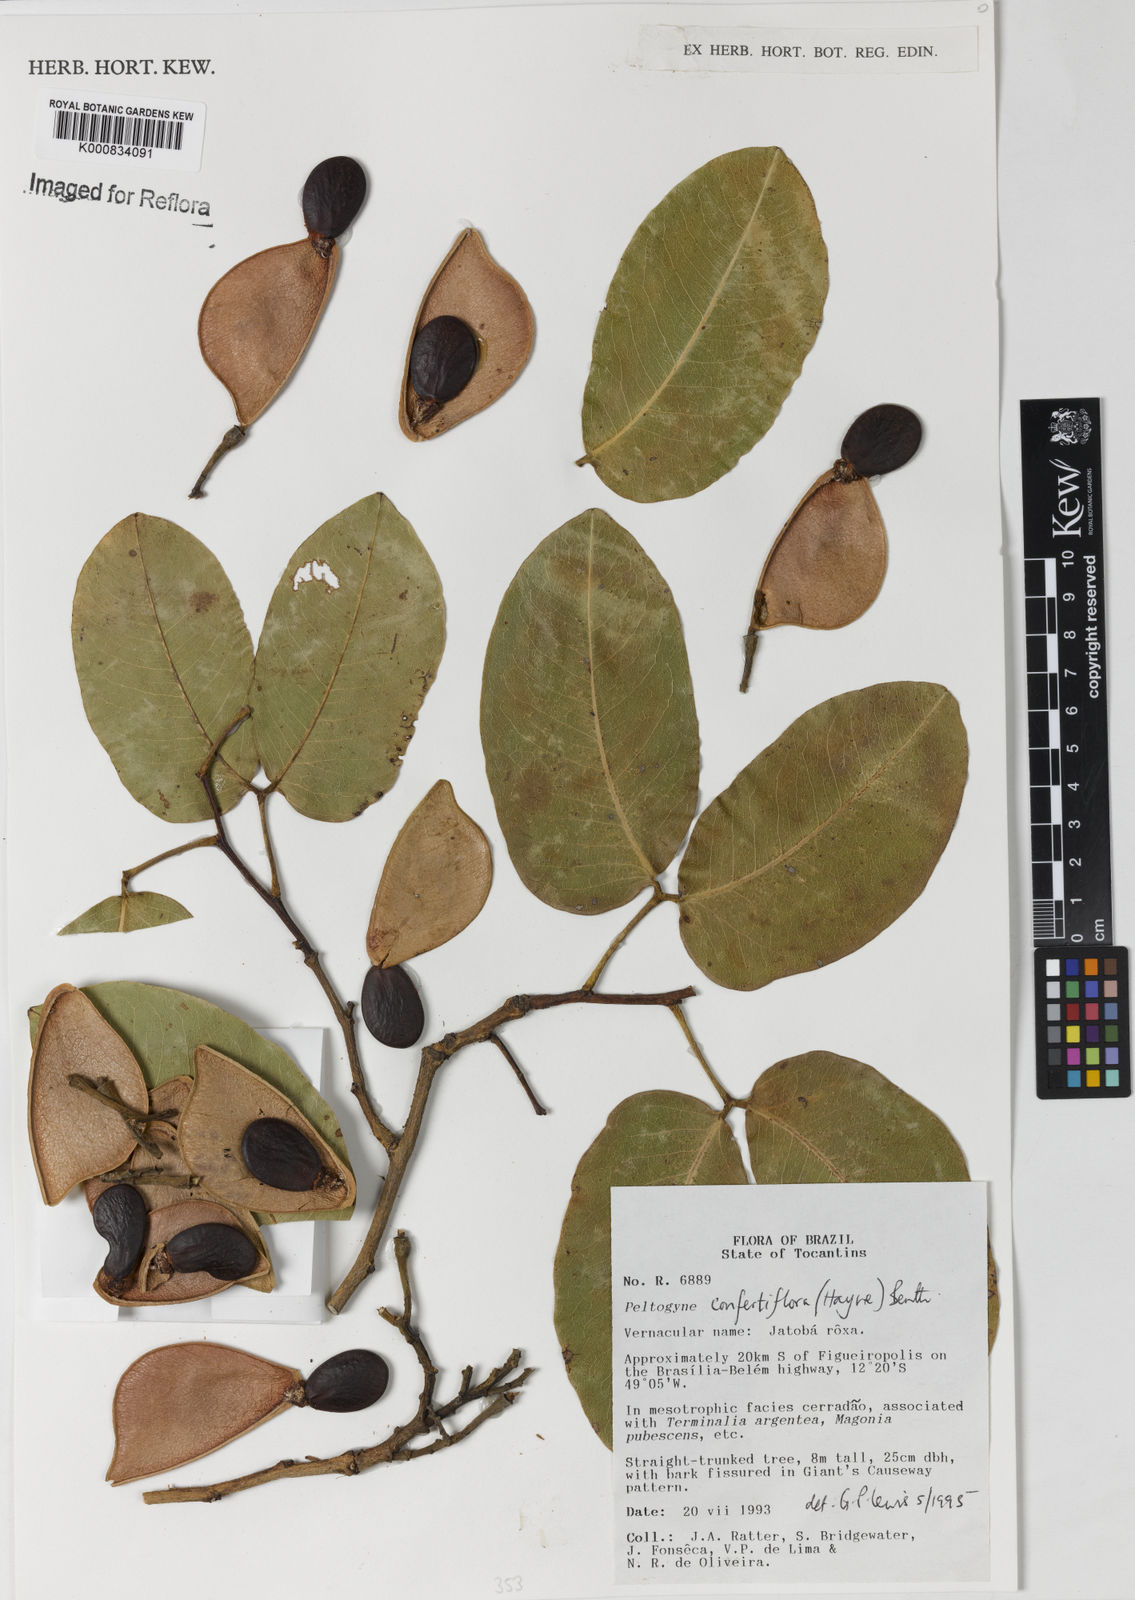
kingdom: Plantae
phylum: Tracheophyta
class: Magnoliopsida
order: Fabales
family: Fabaceae
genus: Peltogyne
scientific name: Peltogyne confertiflora
